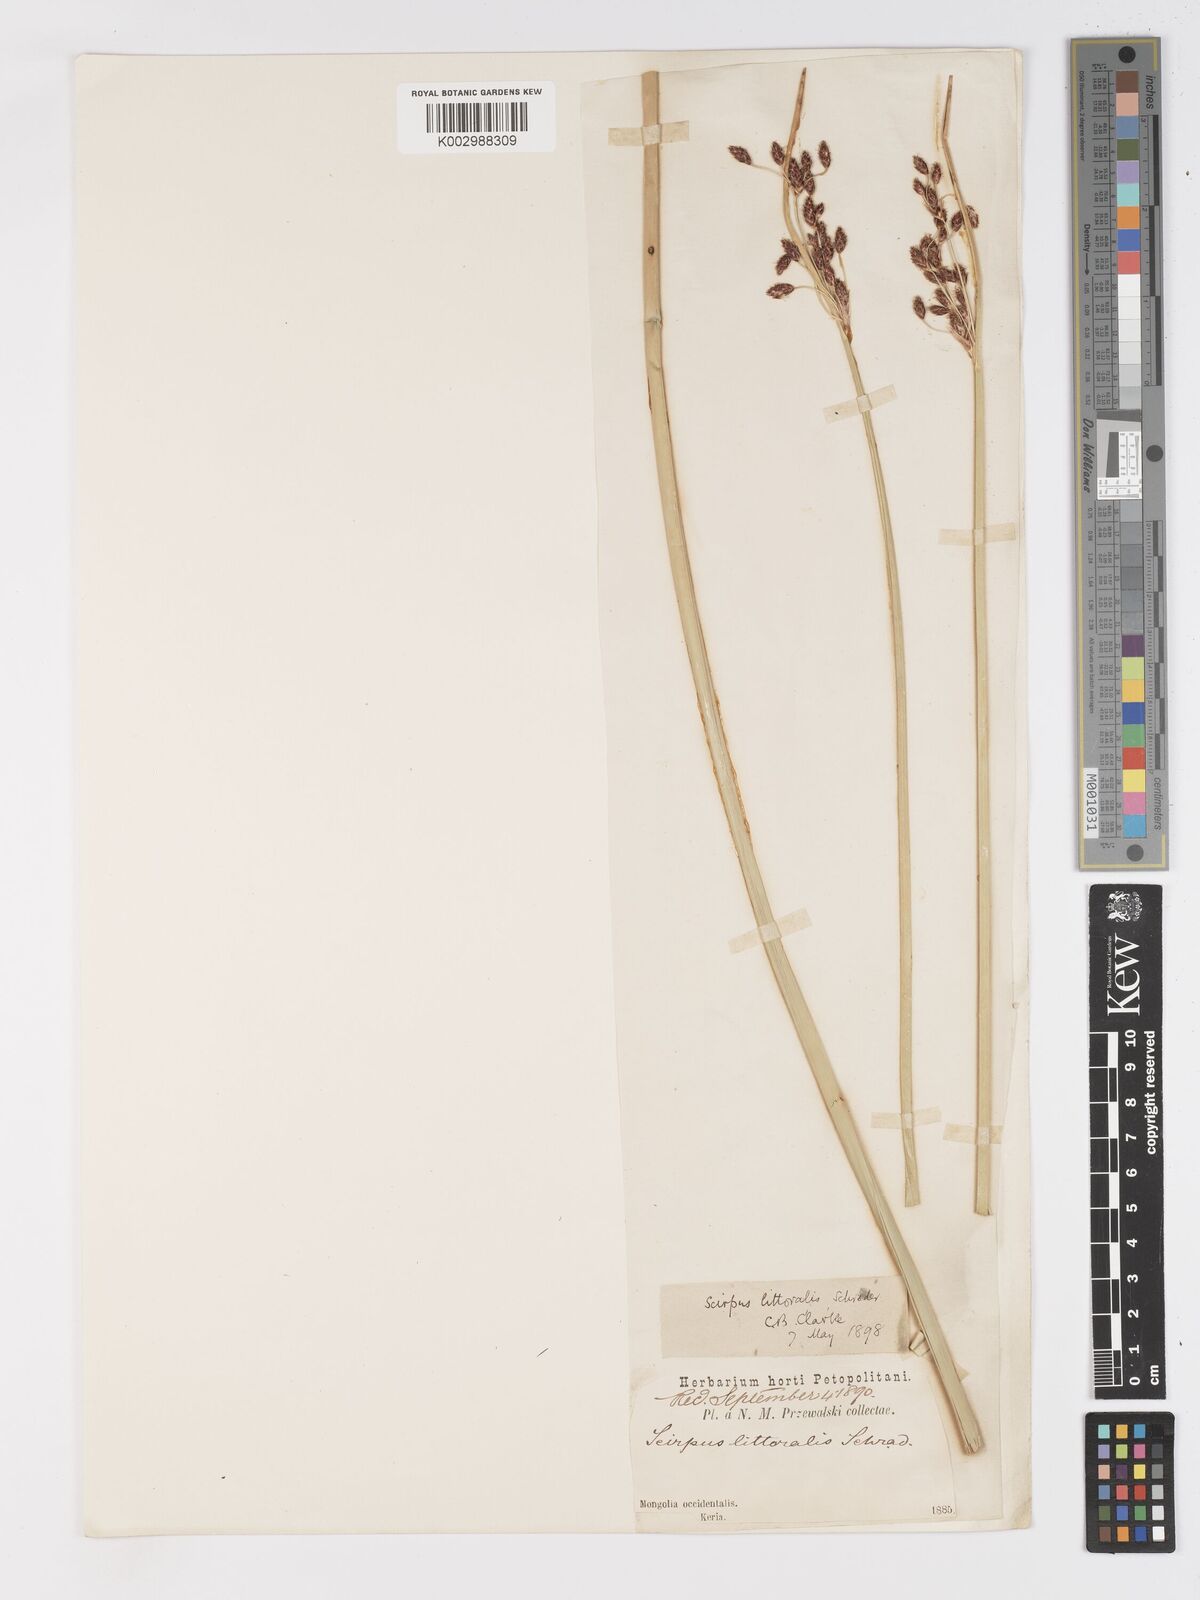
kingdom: Plantae
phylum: Tracheophyta
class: Liliopsida
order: Poales
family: Cyperaceae
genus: Schoenoplectus
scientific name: Schoenoplectus litoralis
